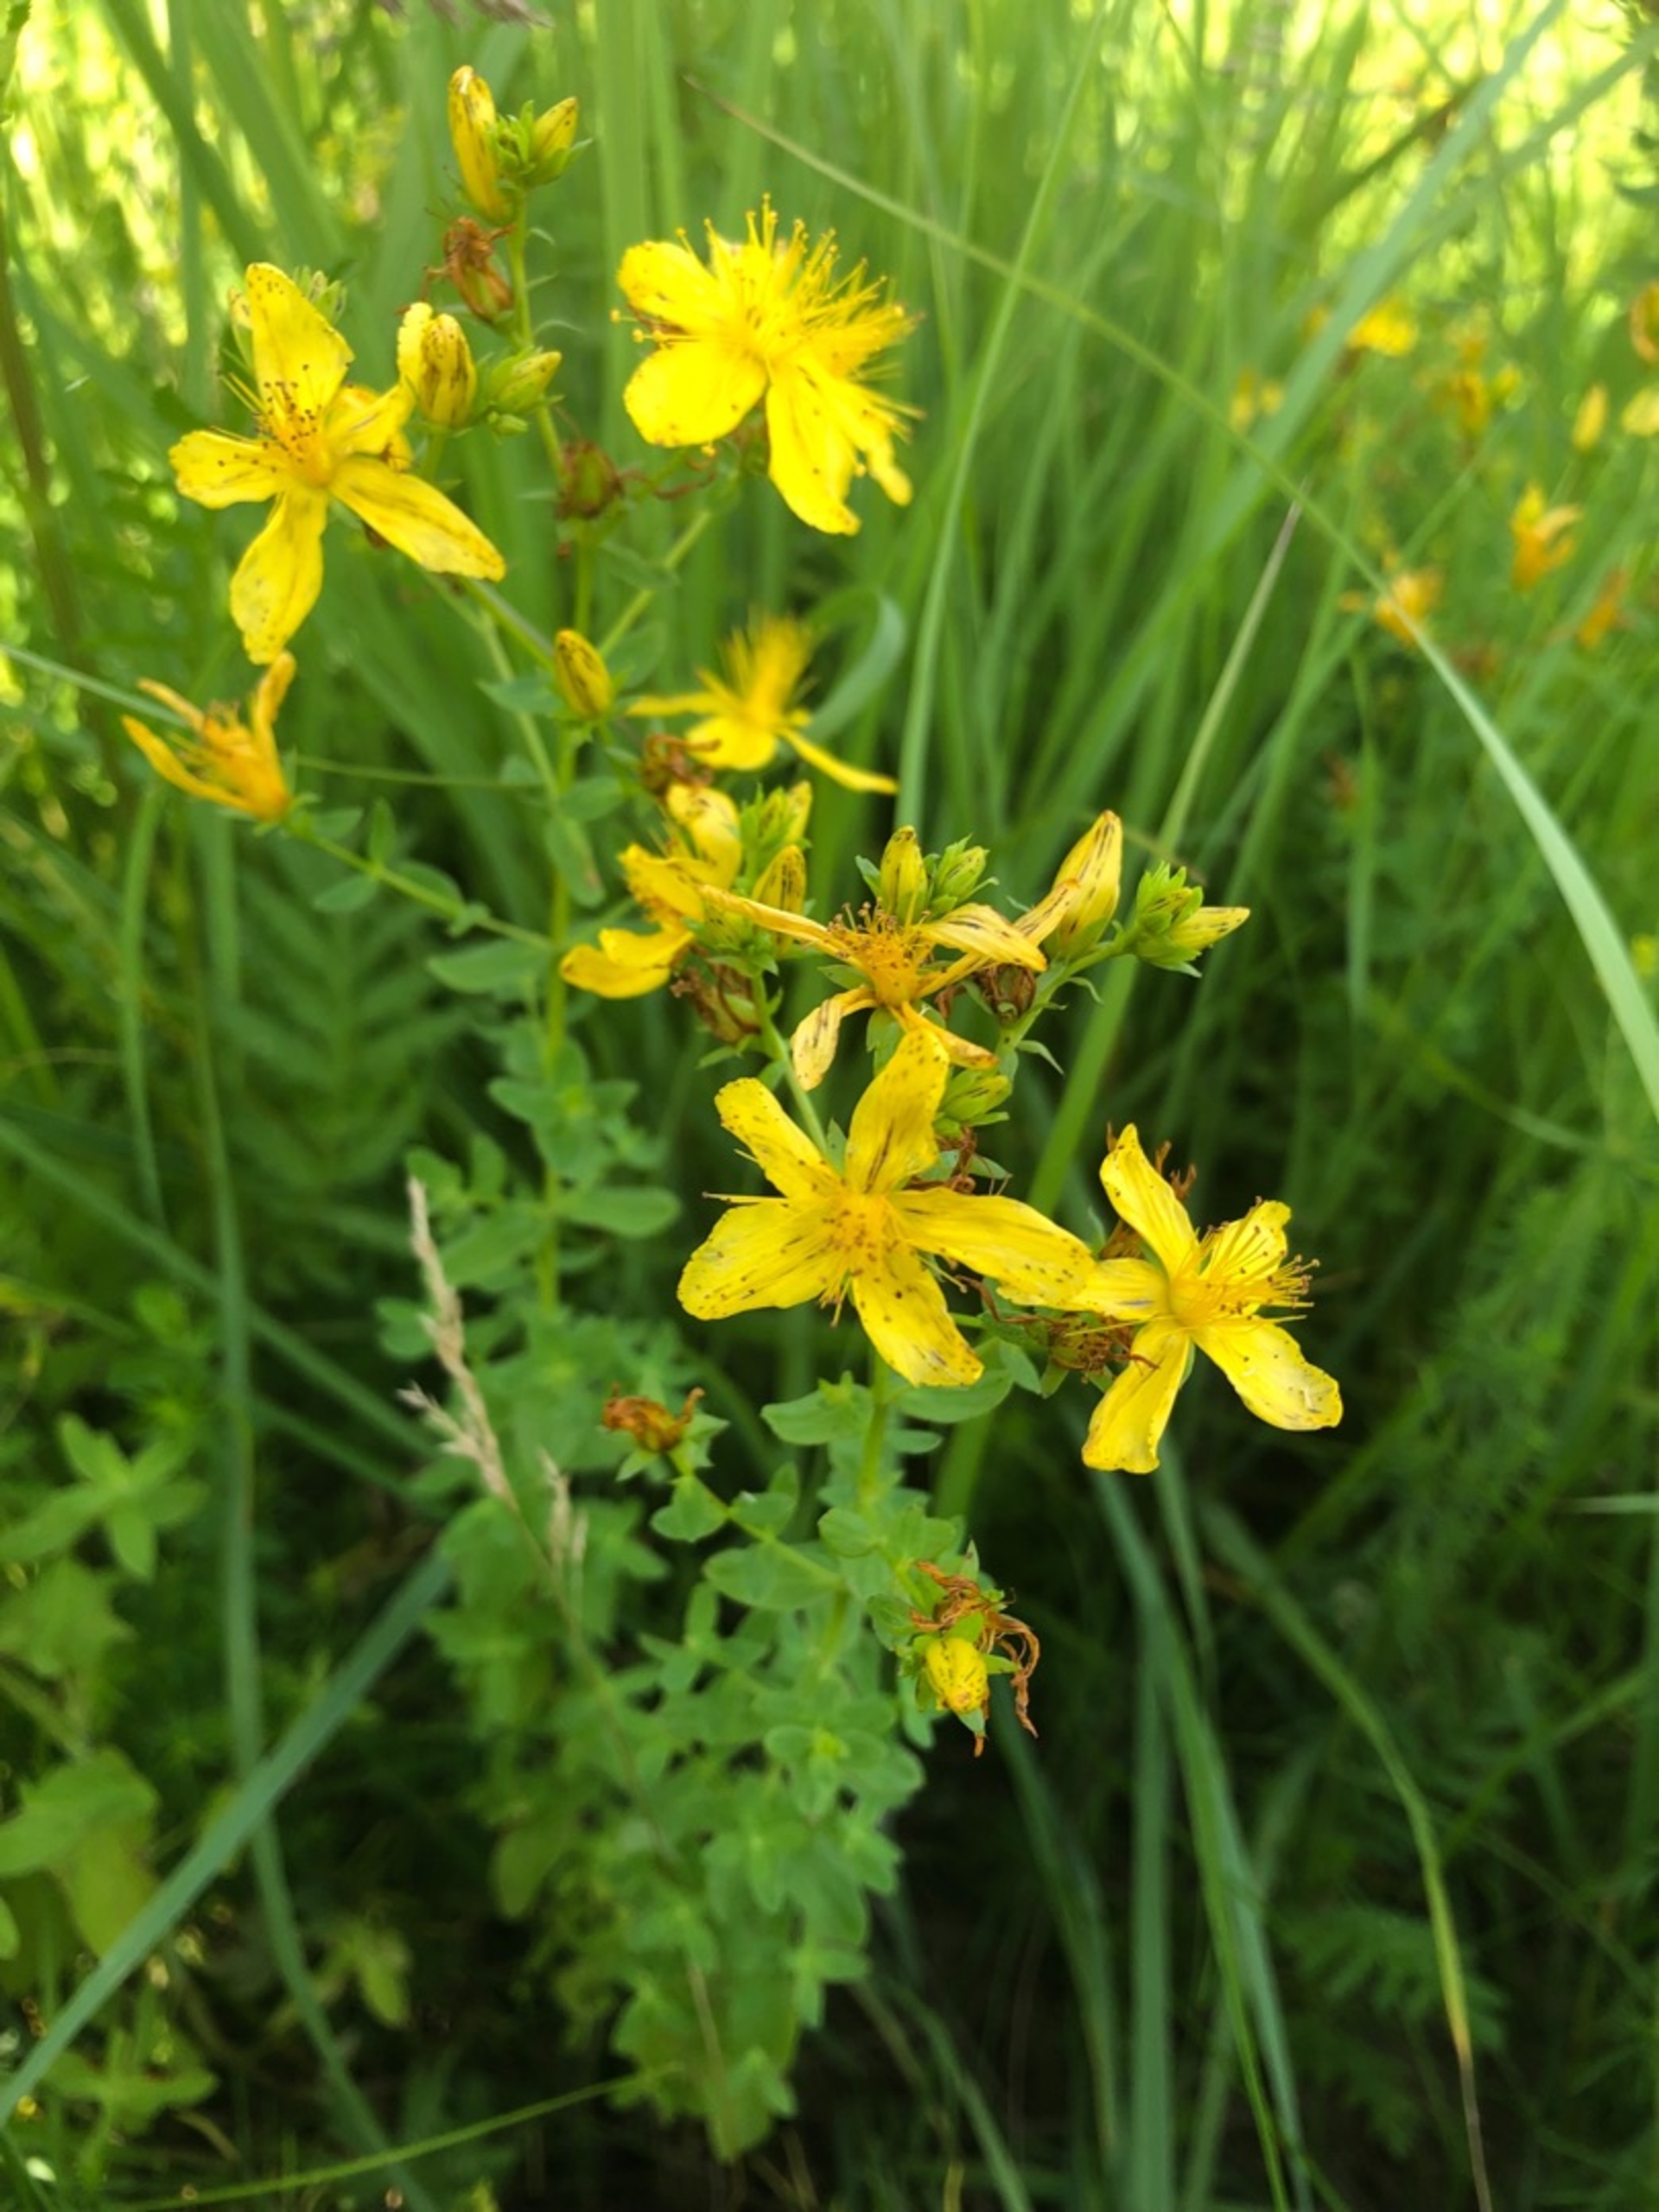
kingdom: Plantae
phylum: Tracheophyta
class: Magnoliopsida
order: Malpighiales
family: Hypericaceae
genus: Hypericum
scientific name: Hypericum perforatum
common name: Prikbladet perikon
